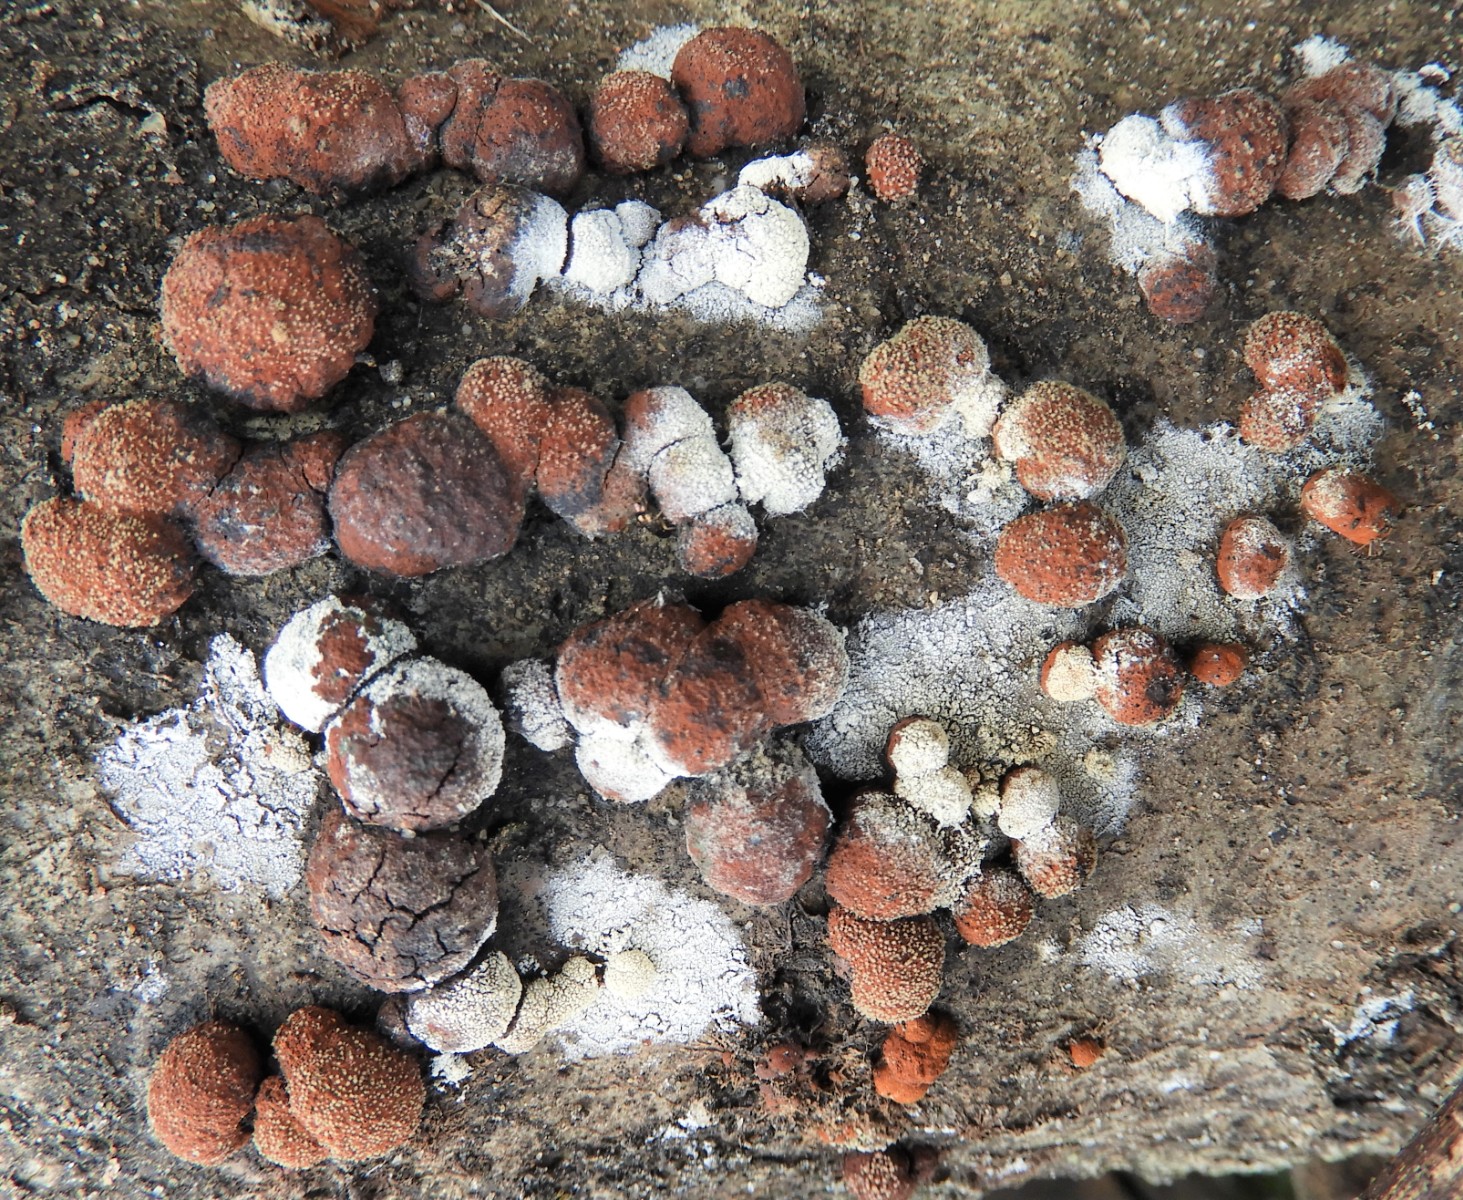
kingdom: Fungi
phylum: Ascomycota
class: Sordariomycetes
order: Xylariales
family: Hypoxylaceae
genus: Hypoxylon
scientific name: Hypoxylon fragiforme
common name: kuljordbær
